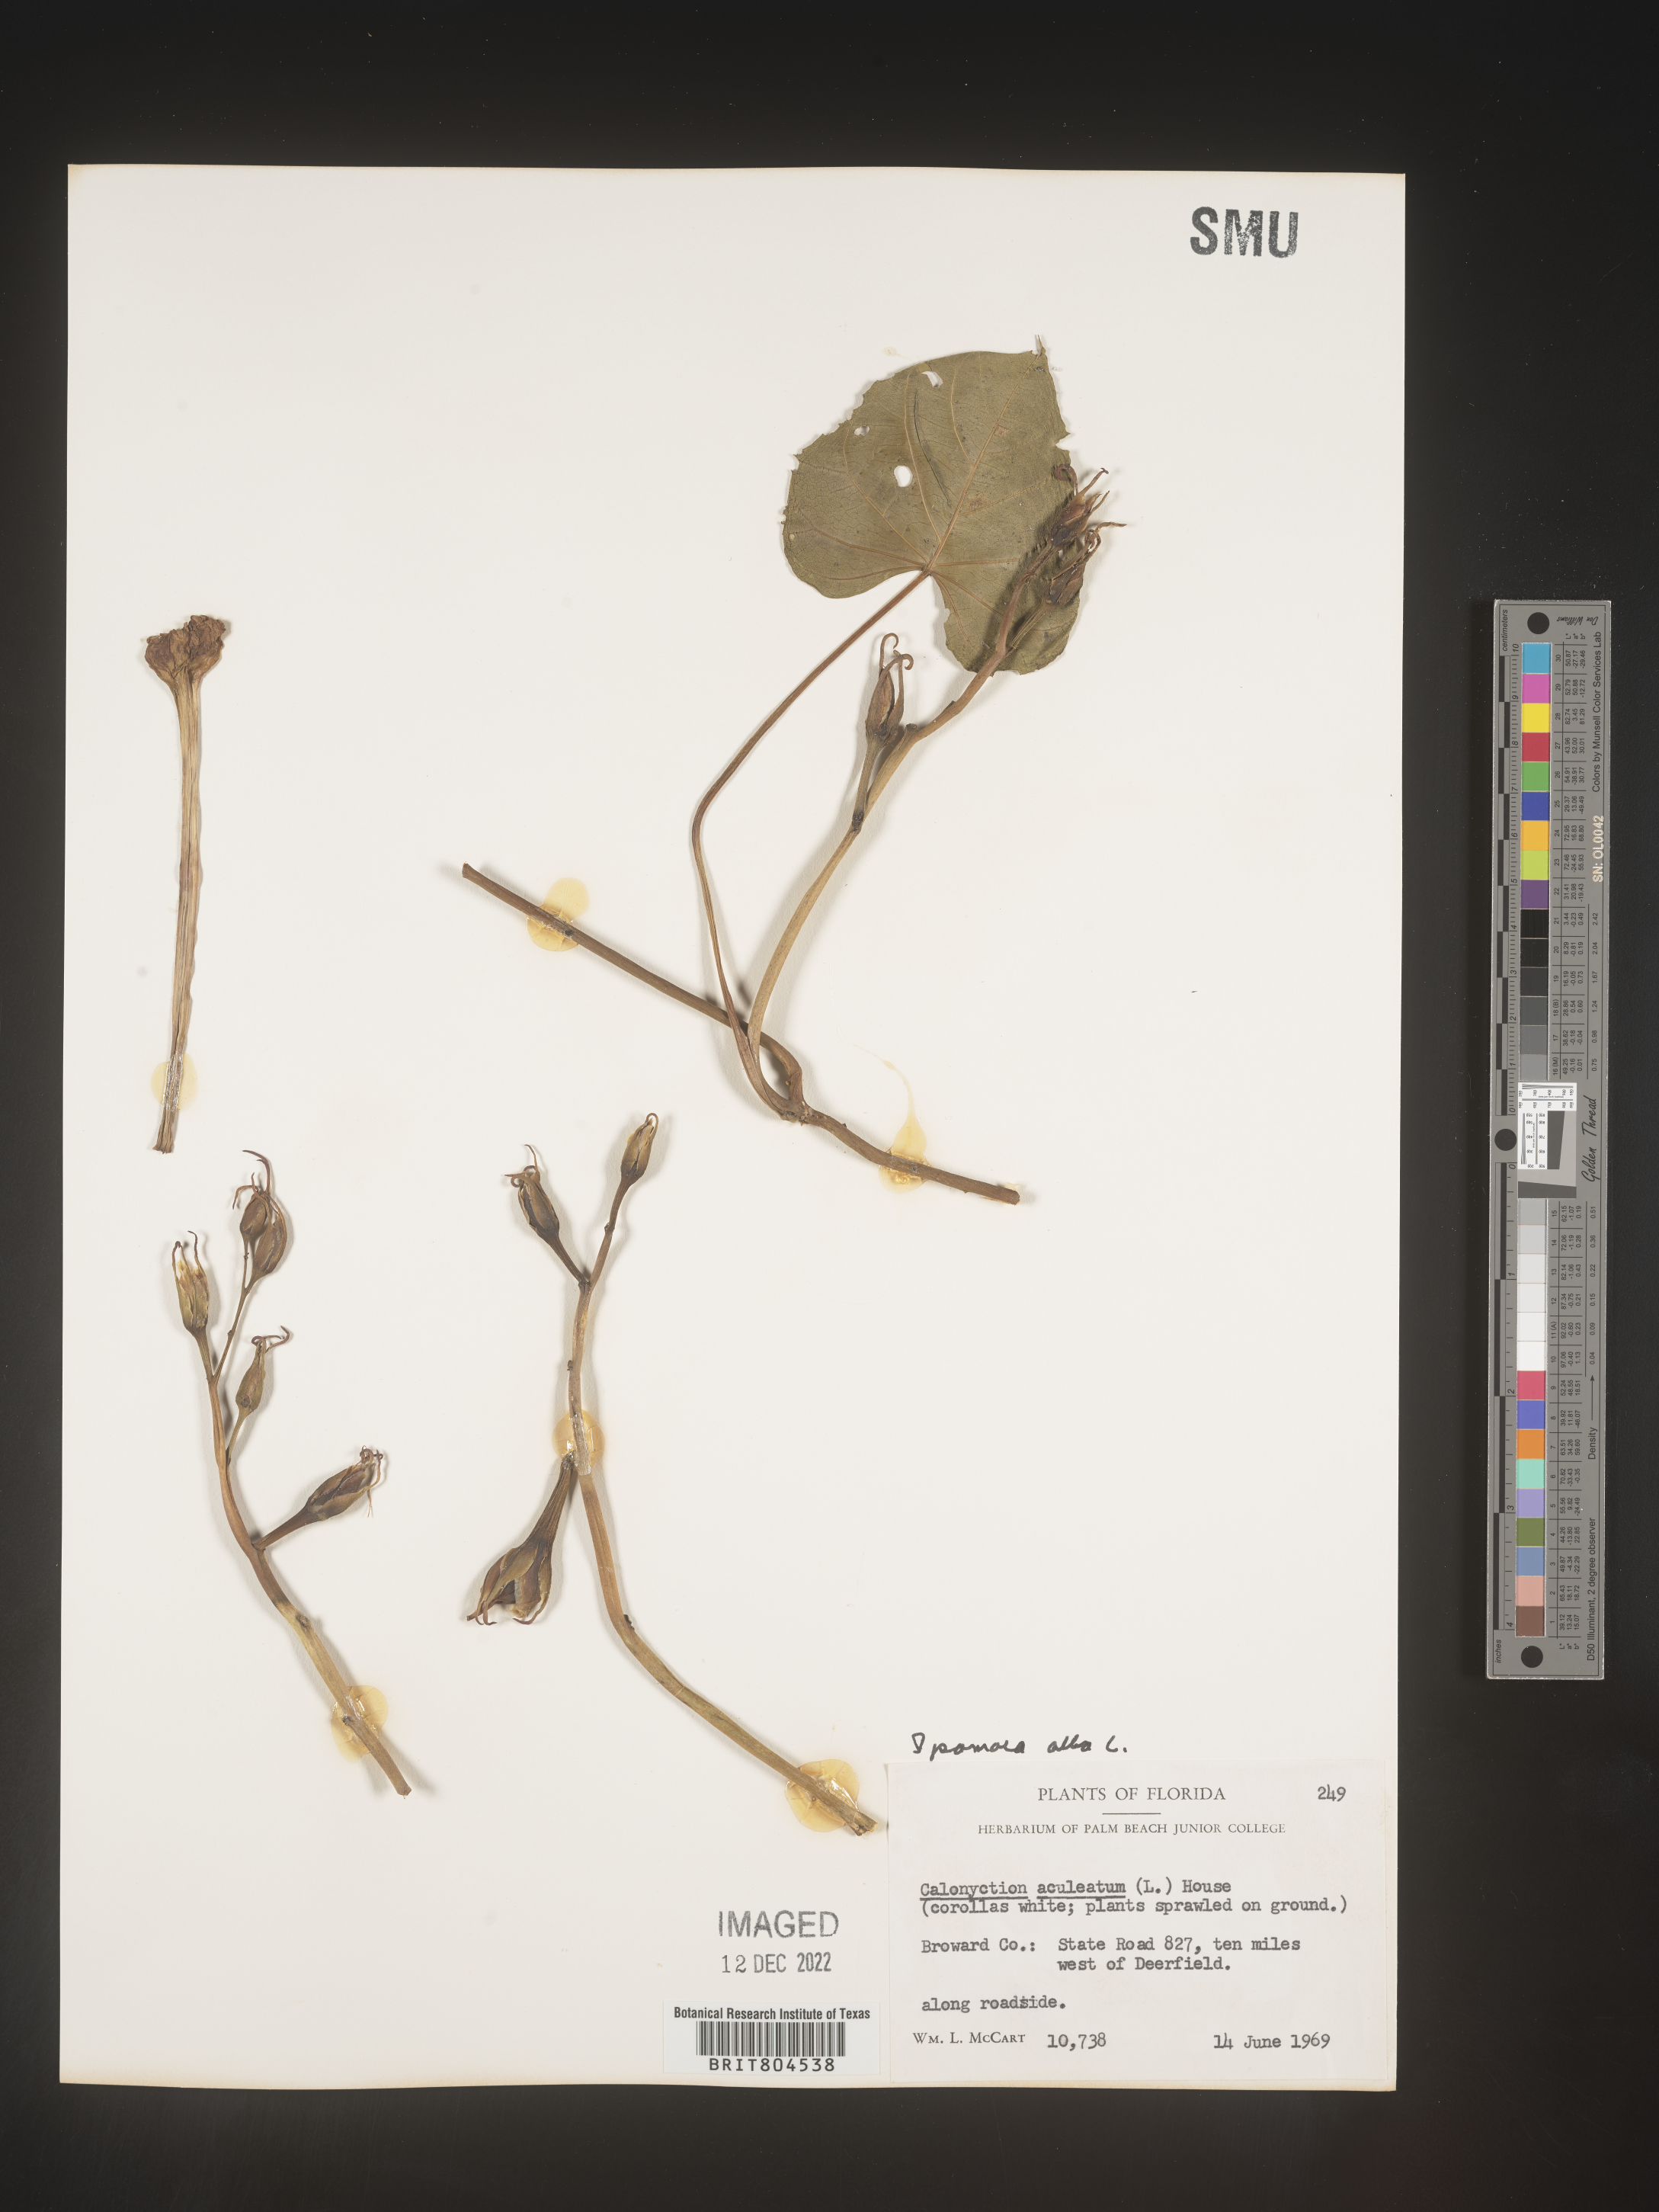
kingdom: Plantae
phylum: Tracheophyta
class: Magnoliopsida
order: Solanales
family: Convolvulaceae
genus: Ipomoea
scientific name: Ipomoea alba
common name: Moonflower
